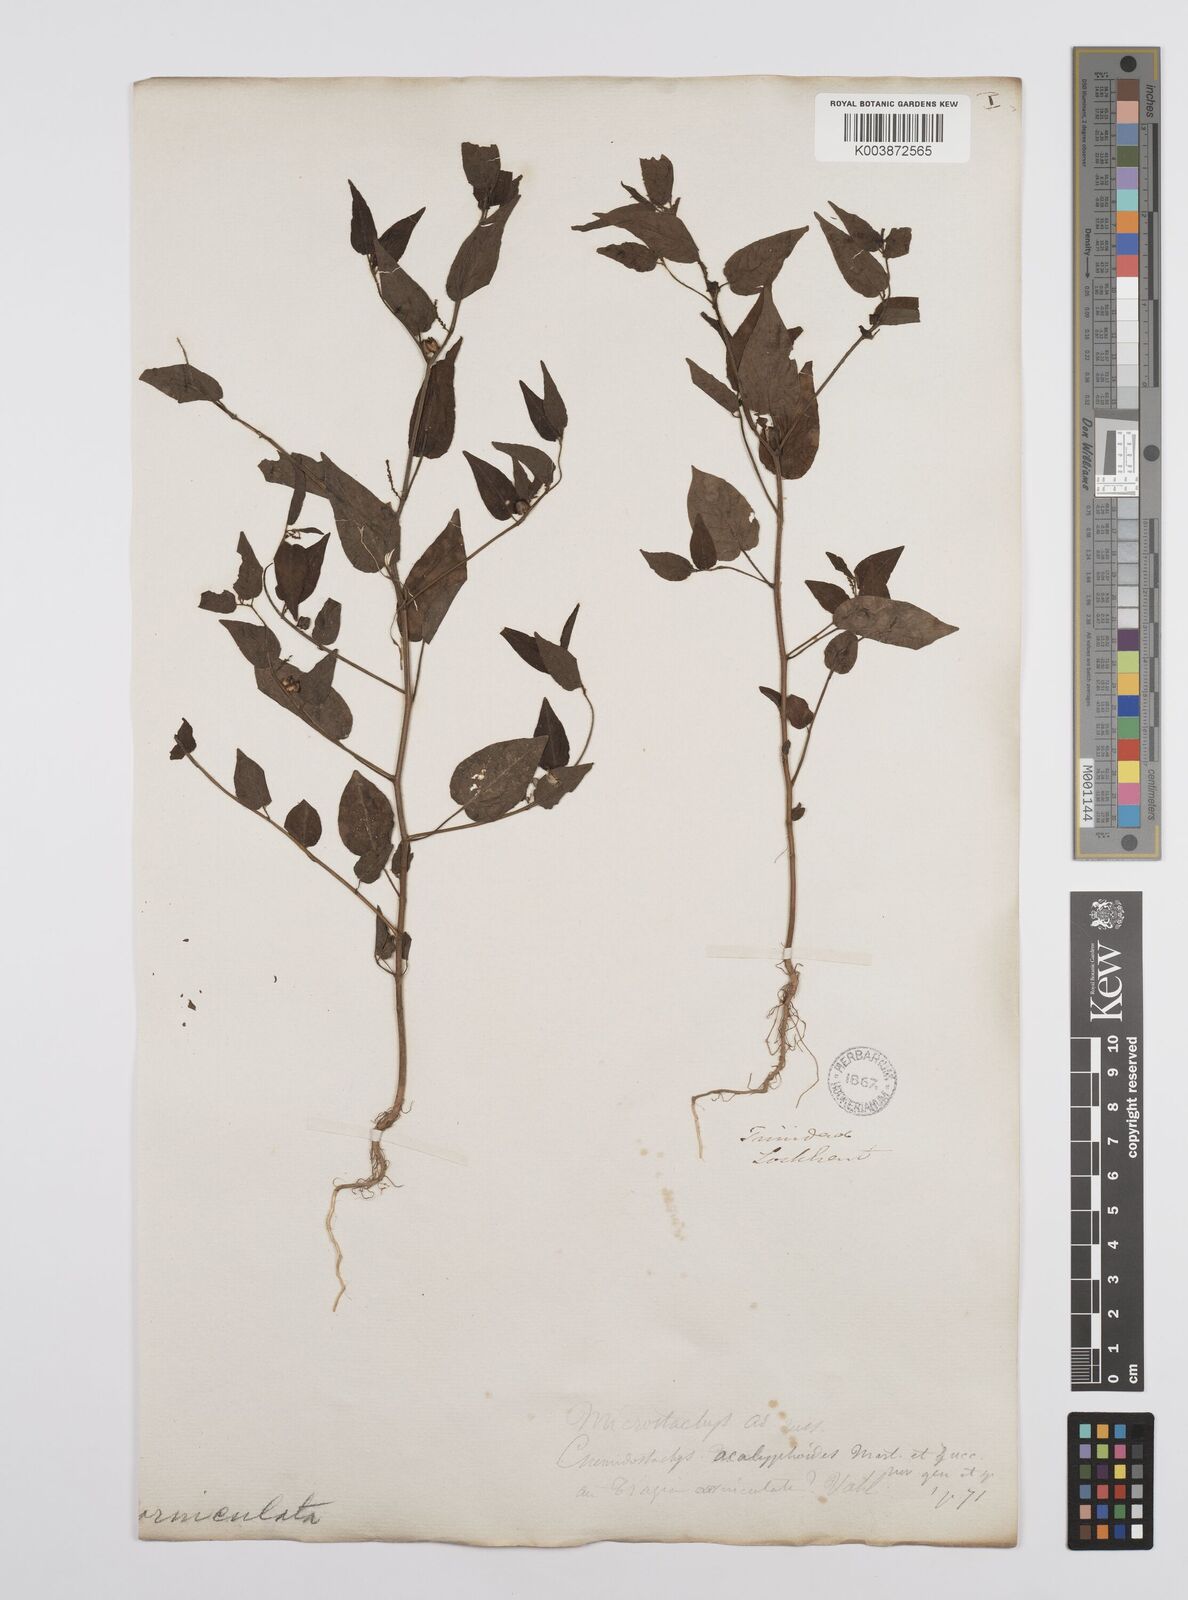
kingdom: Plantae
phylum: Tracheophyta
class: Magnoliopsida
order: Malpighiales
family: Euphorbiaceae
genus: Microstachys
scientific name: Microstachys corniculata
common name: Hato tejas
